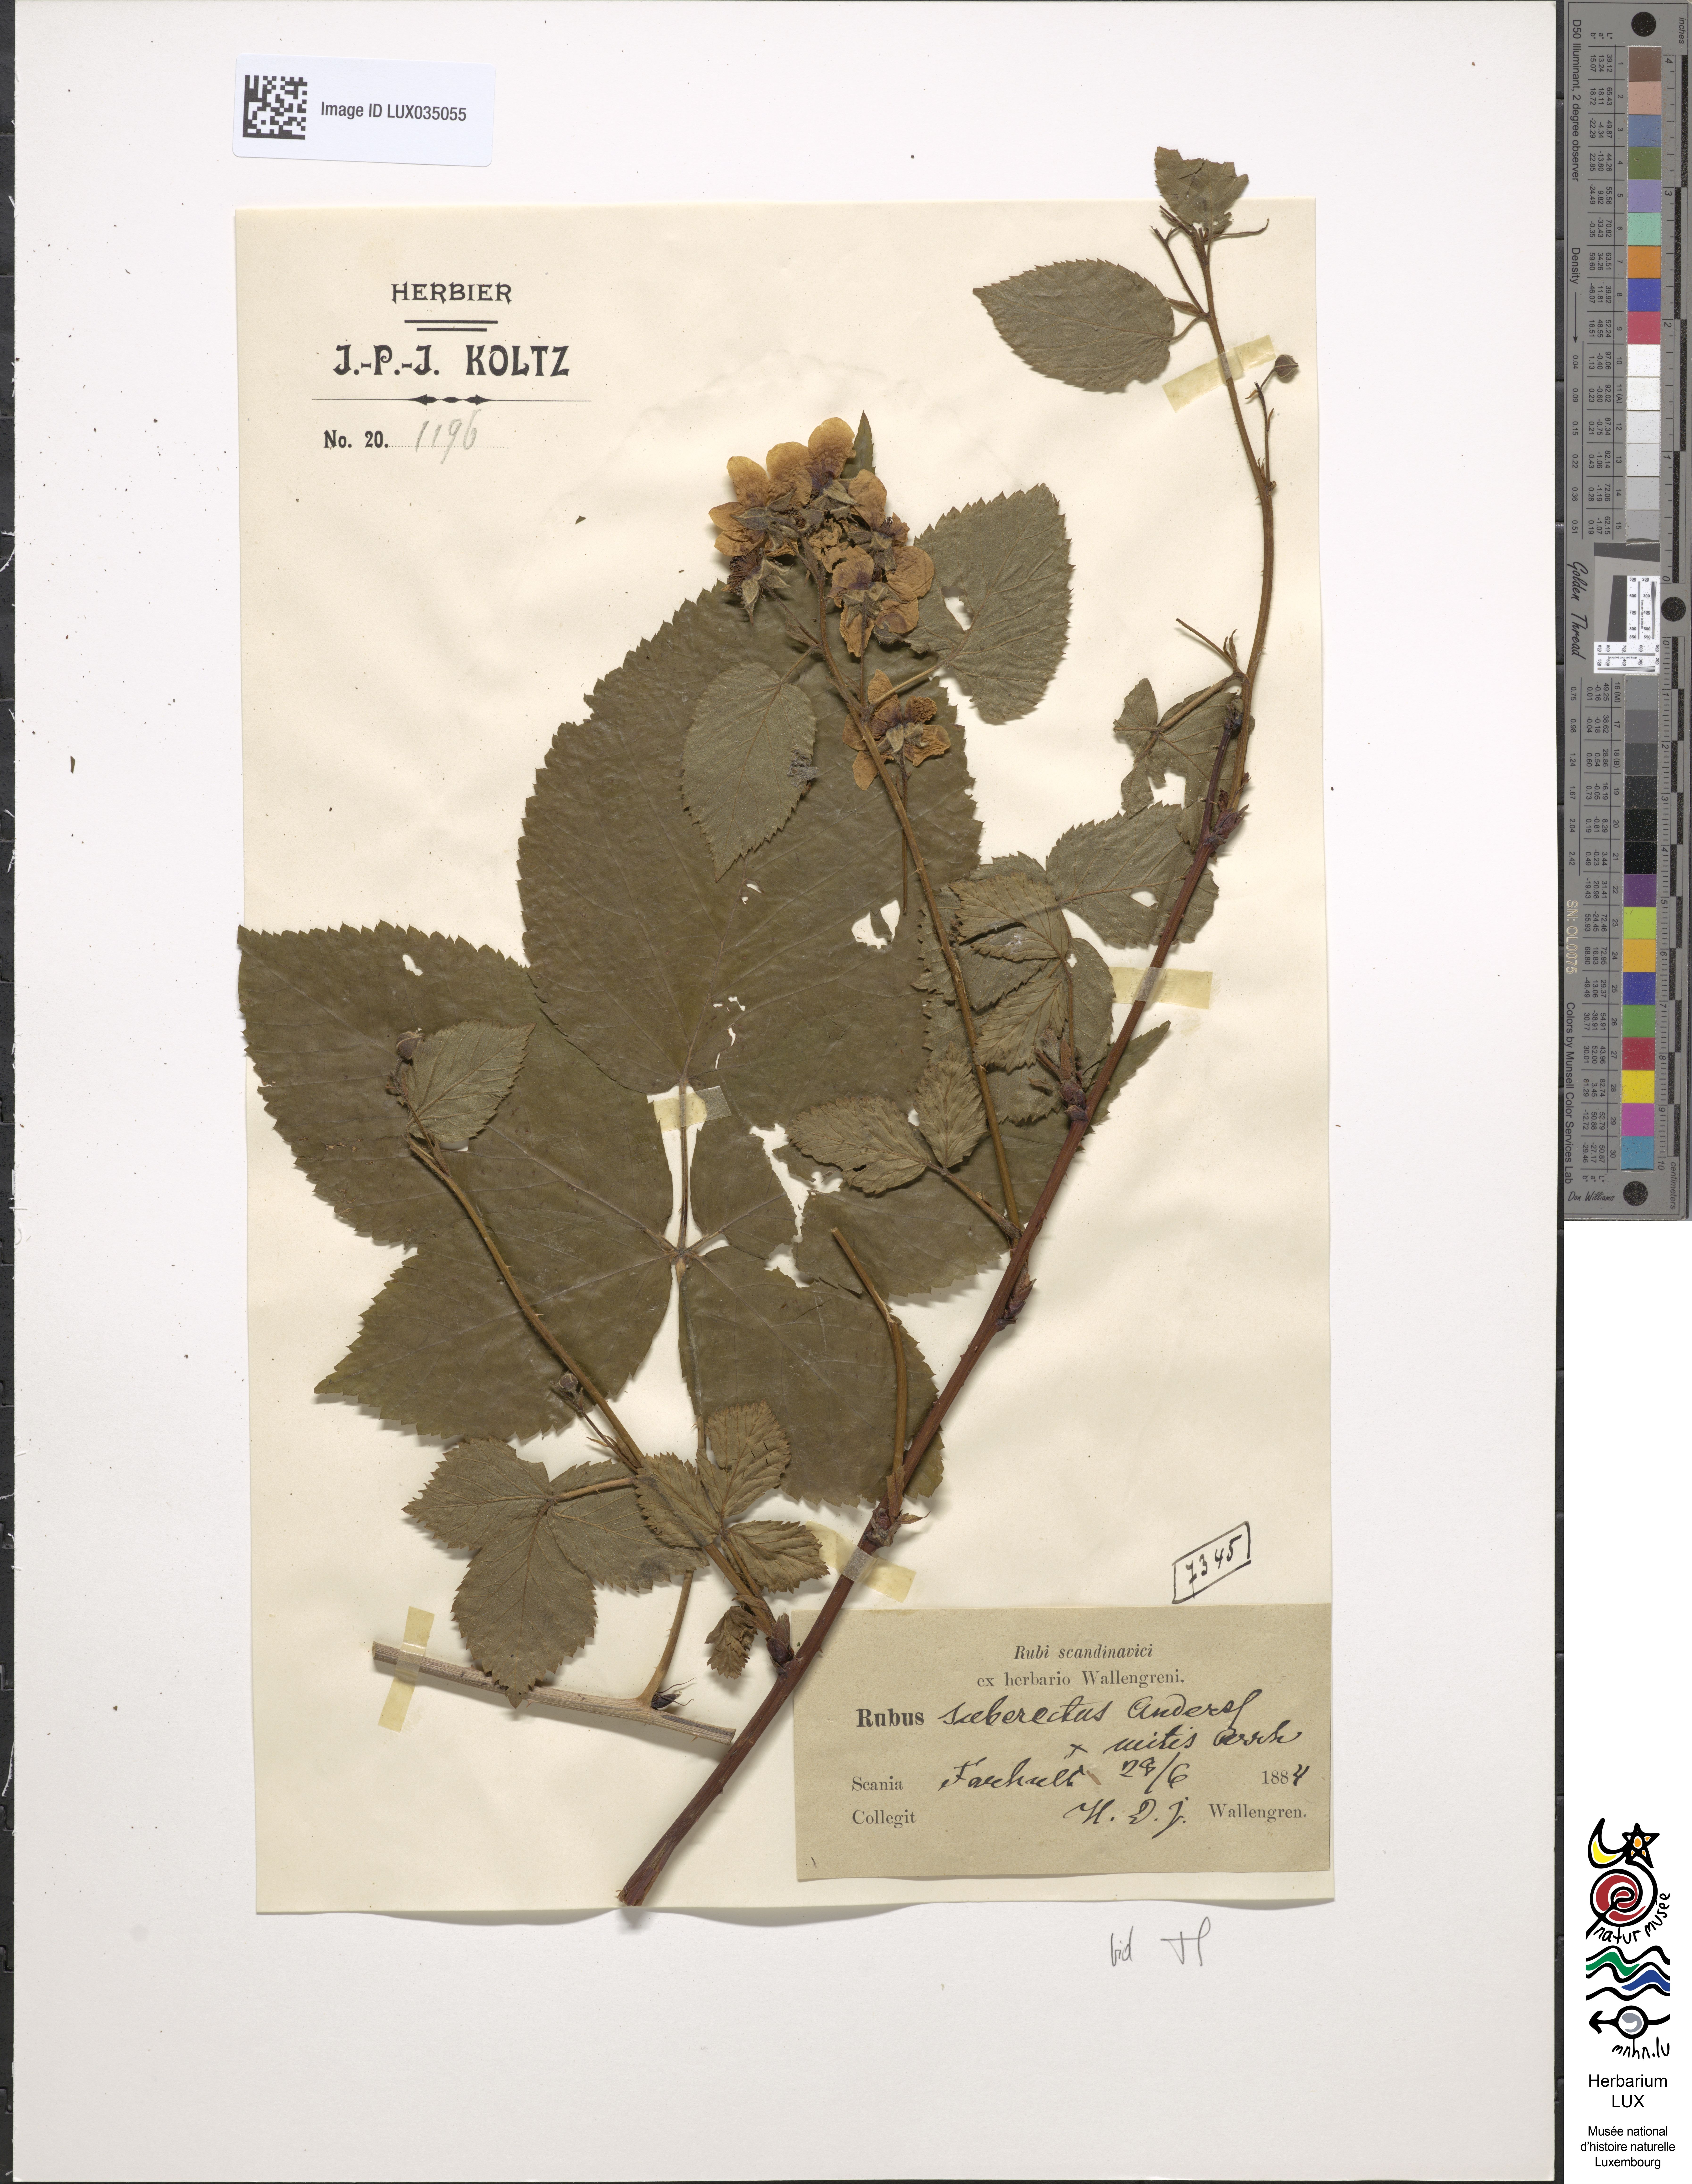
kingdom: Plantae
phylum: Tracheophyta
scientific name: Tracheophyta
